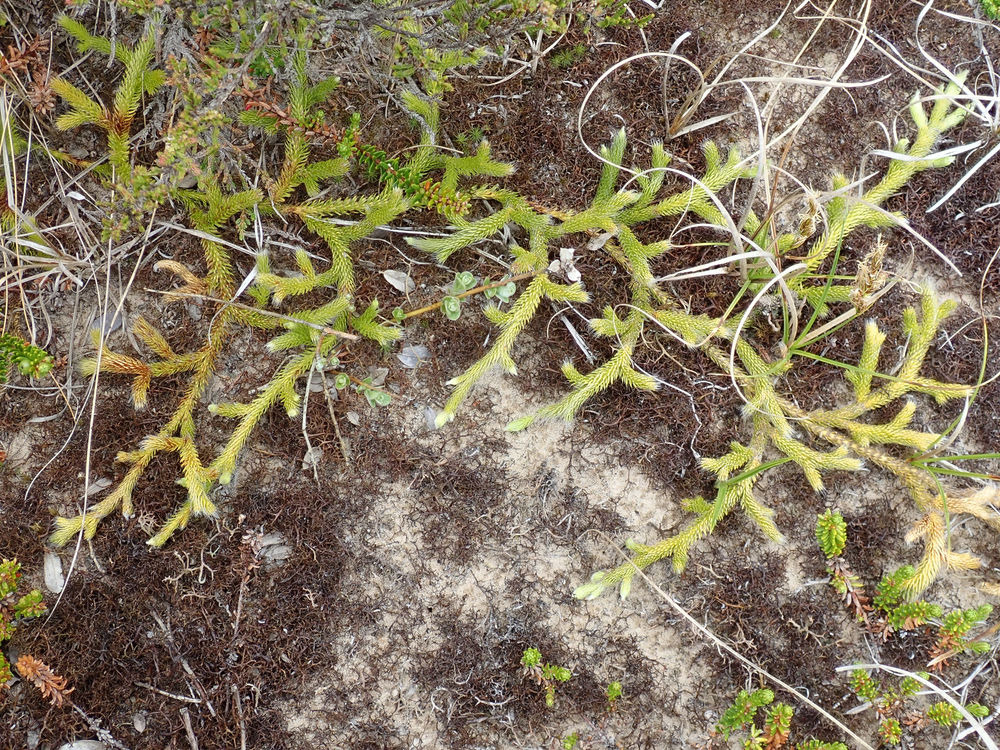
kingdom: Plantae
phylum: Tracheophyta
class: Lycopodiopsida
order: Lycopodiales
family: Lycopodiaceae
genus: Lycopodium
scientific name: Lycopodium clavatum
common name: Almindelig ulvefod
